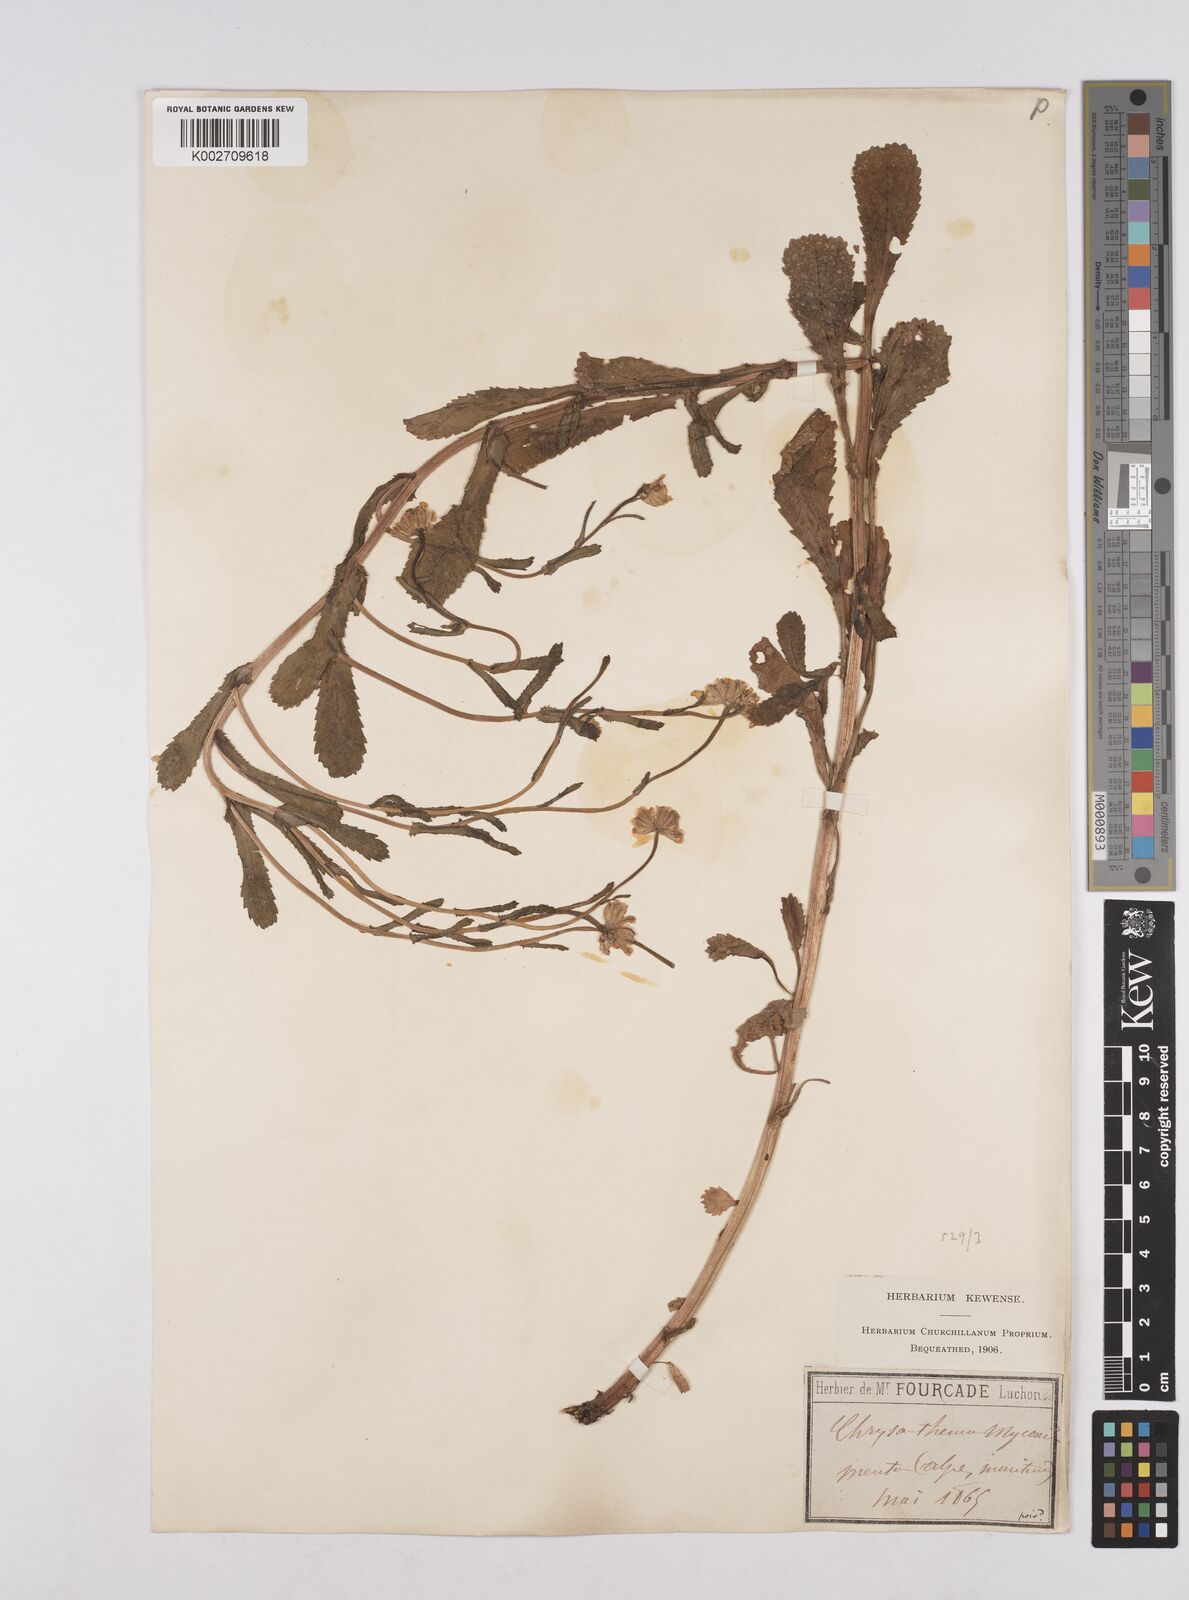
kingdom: Plantae
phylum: Tracheophyta
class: Magnoliopsida
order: Asterales
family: Asteraceae
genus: Coleostephus
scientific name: Coleostephus myconis
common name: Mediterranean marigold
